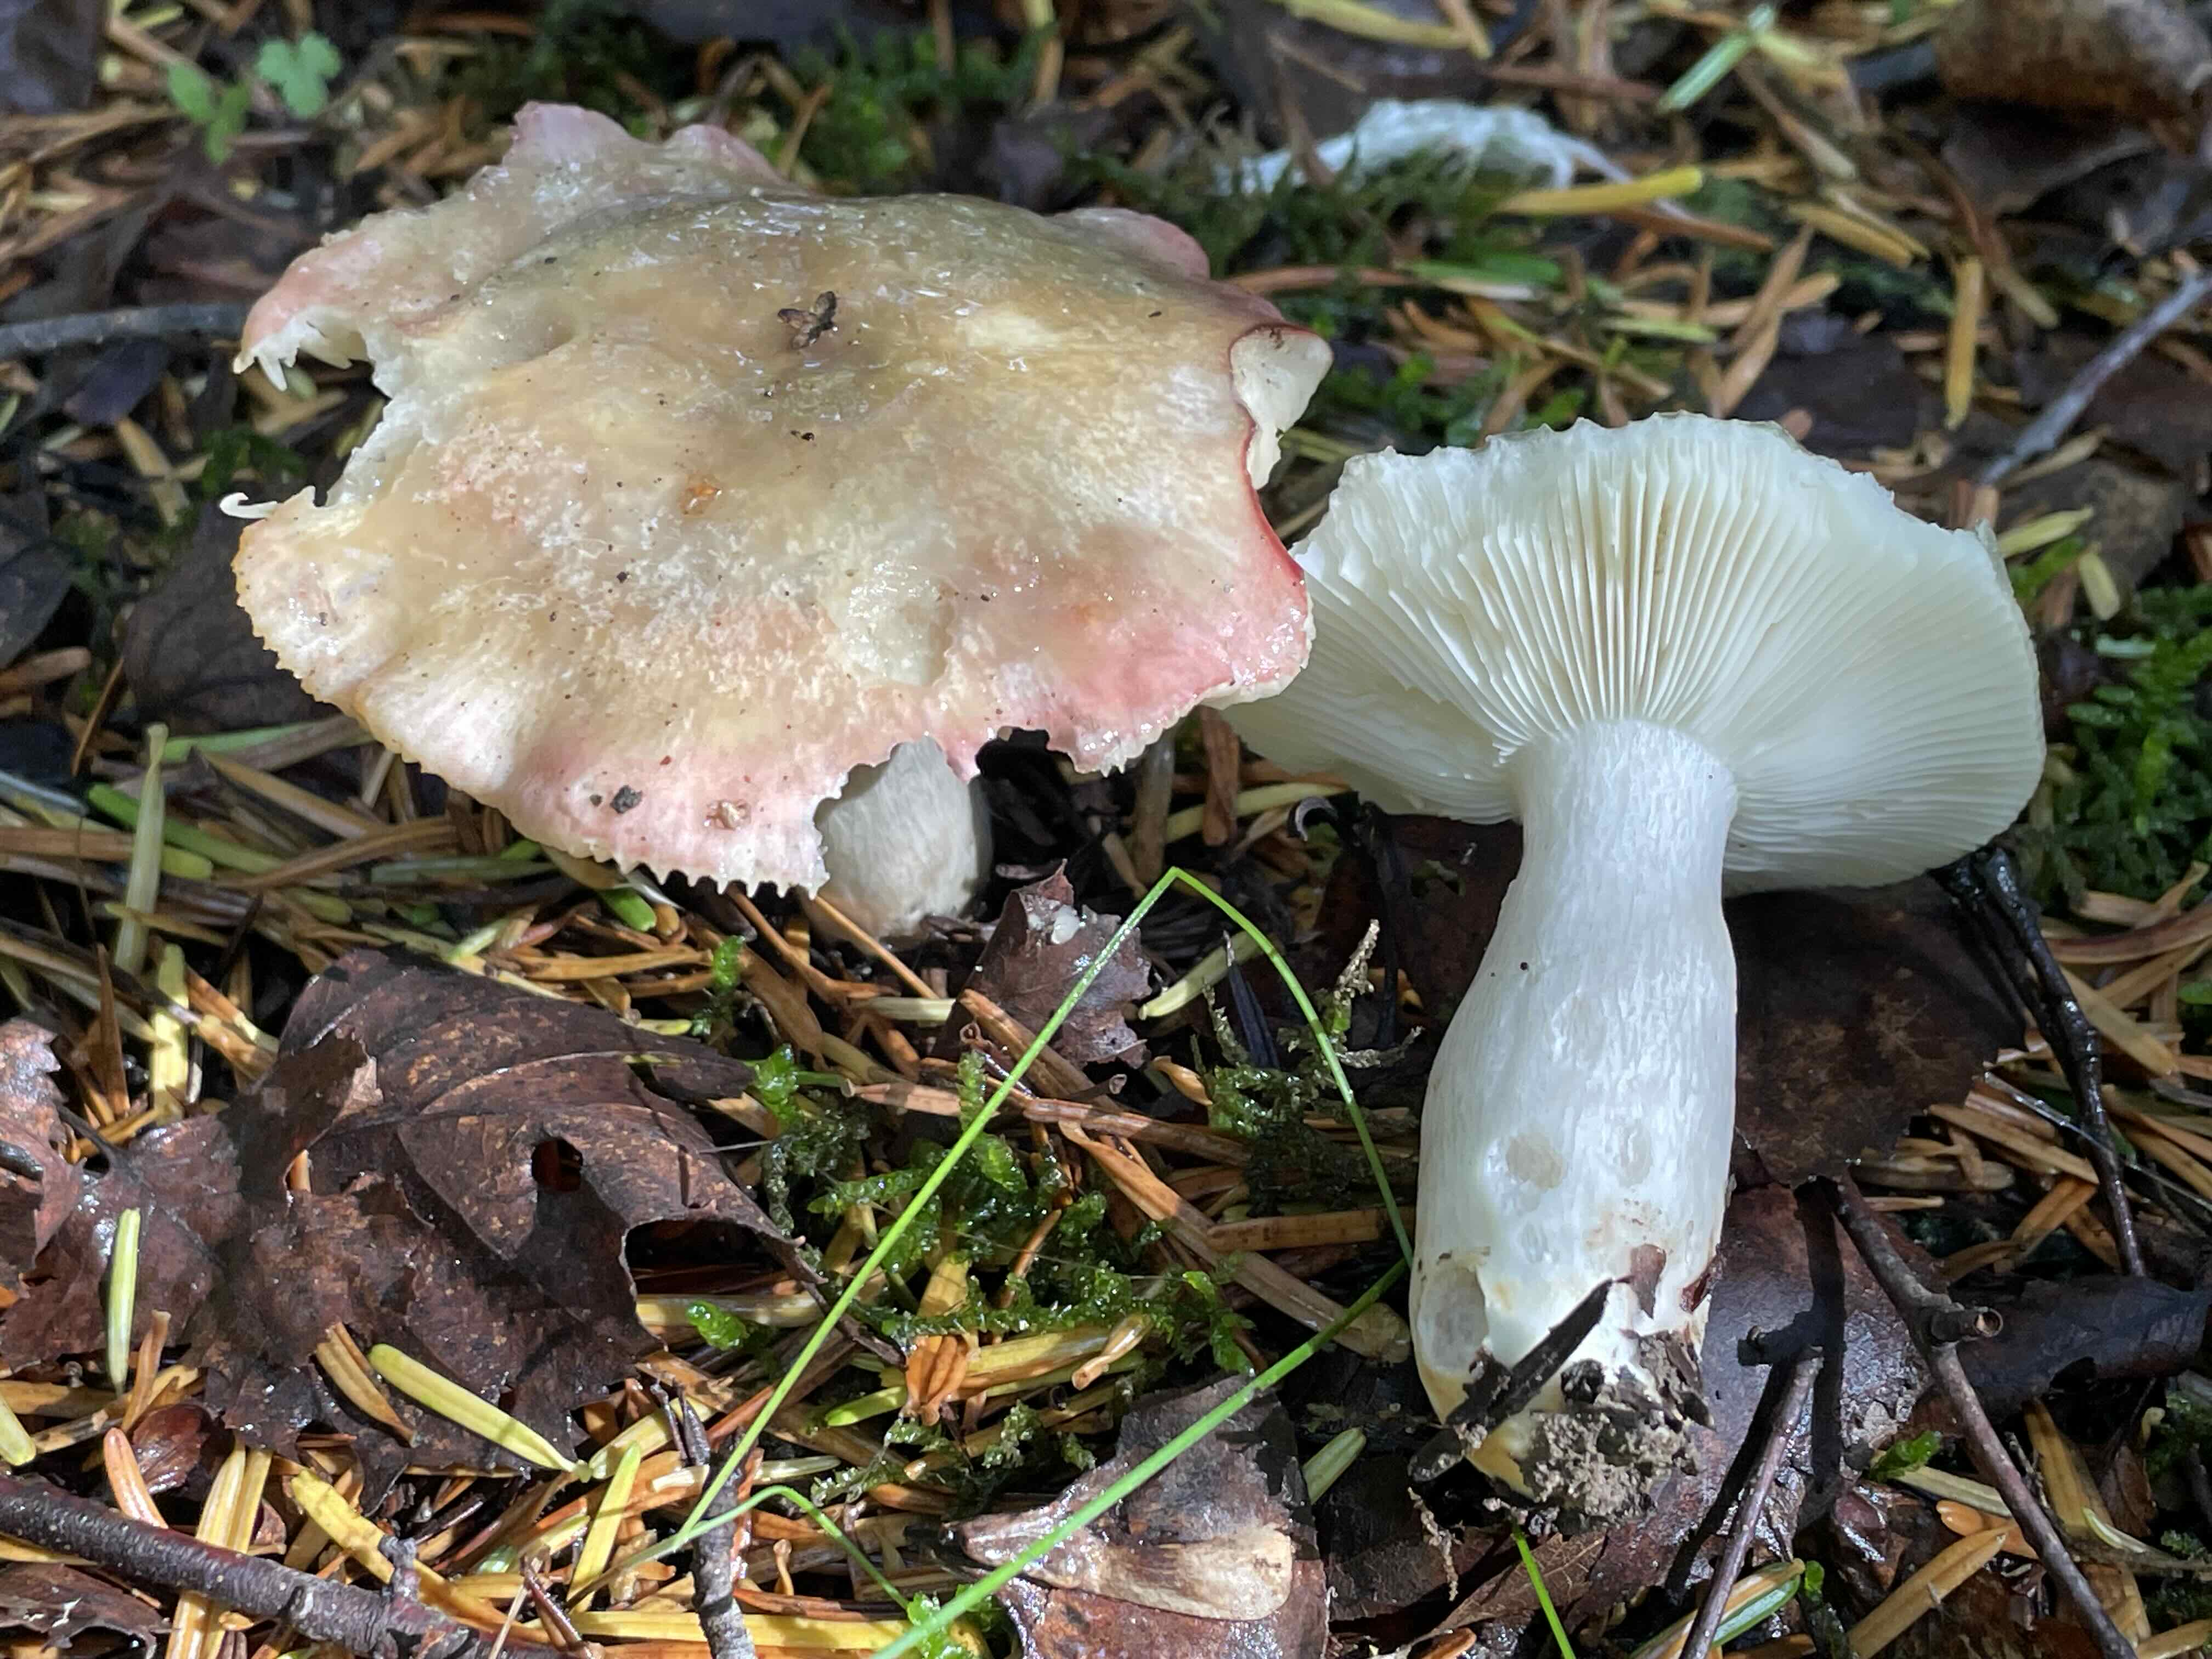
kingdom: Fungi
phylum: Basidiomycota
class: Agaricomycetes
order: Russulales
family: Russulaceae
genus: Russula
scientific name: Russula depallens
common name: falmende skørhat
